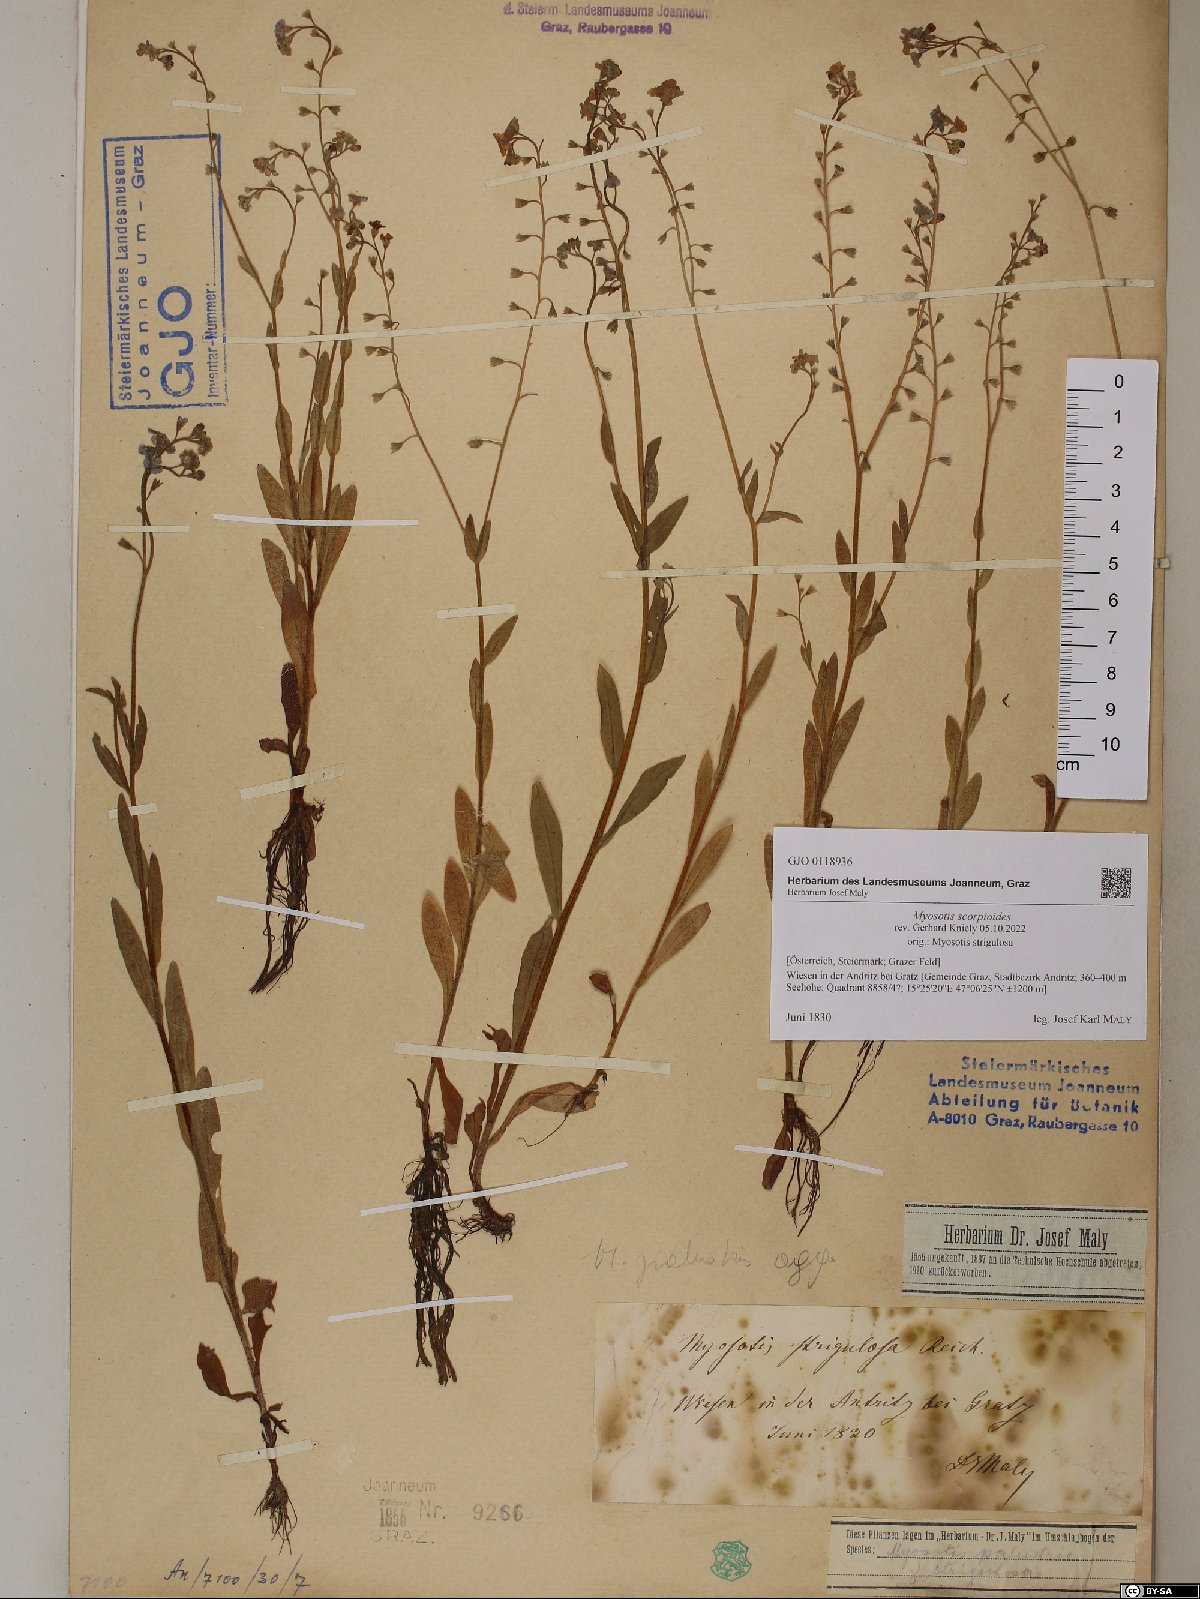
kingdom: Plantae
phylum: Tracheophyta
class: Magnoliopsida
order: Boraginales
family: Boraginaceae
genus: Myosotis
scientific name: Myosotis scorpioides
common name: Water forget-me-not
